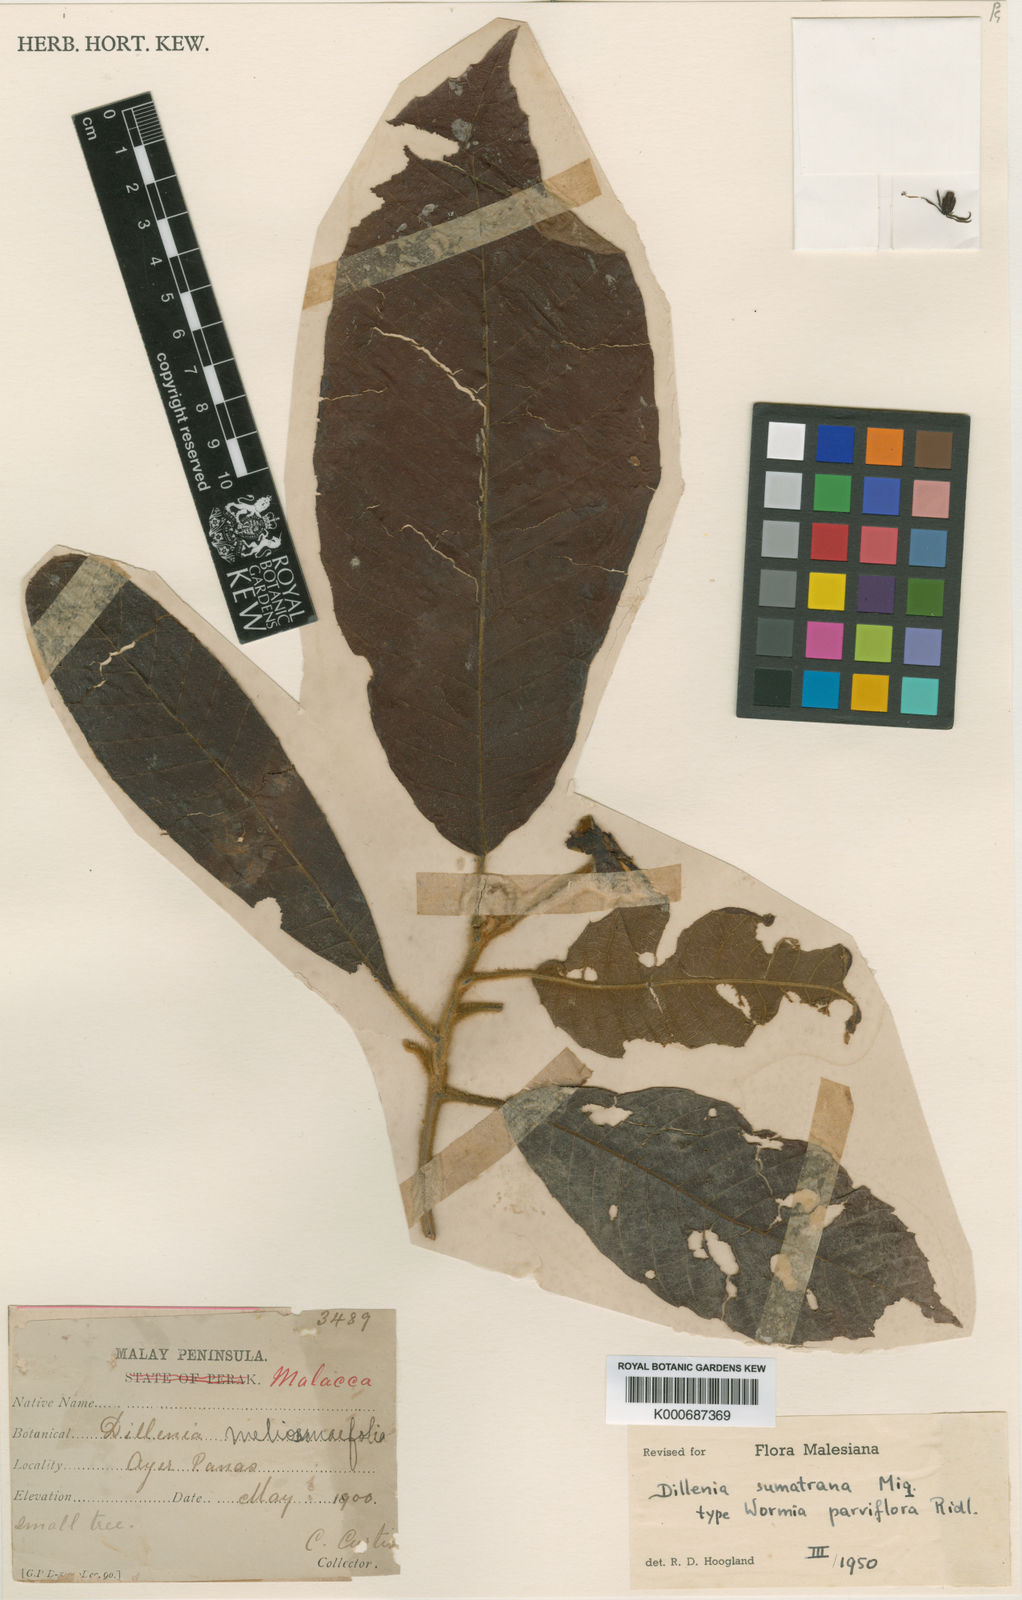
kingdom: Plantae
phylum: Tracheophyta
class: Magnoliopsida
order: Dilleniales
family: Dilleniaceae
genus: Dillenia
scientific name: Dillenia sumatrana
